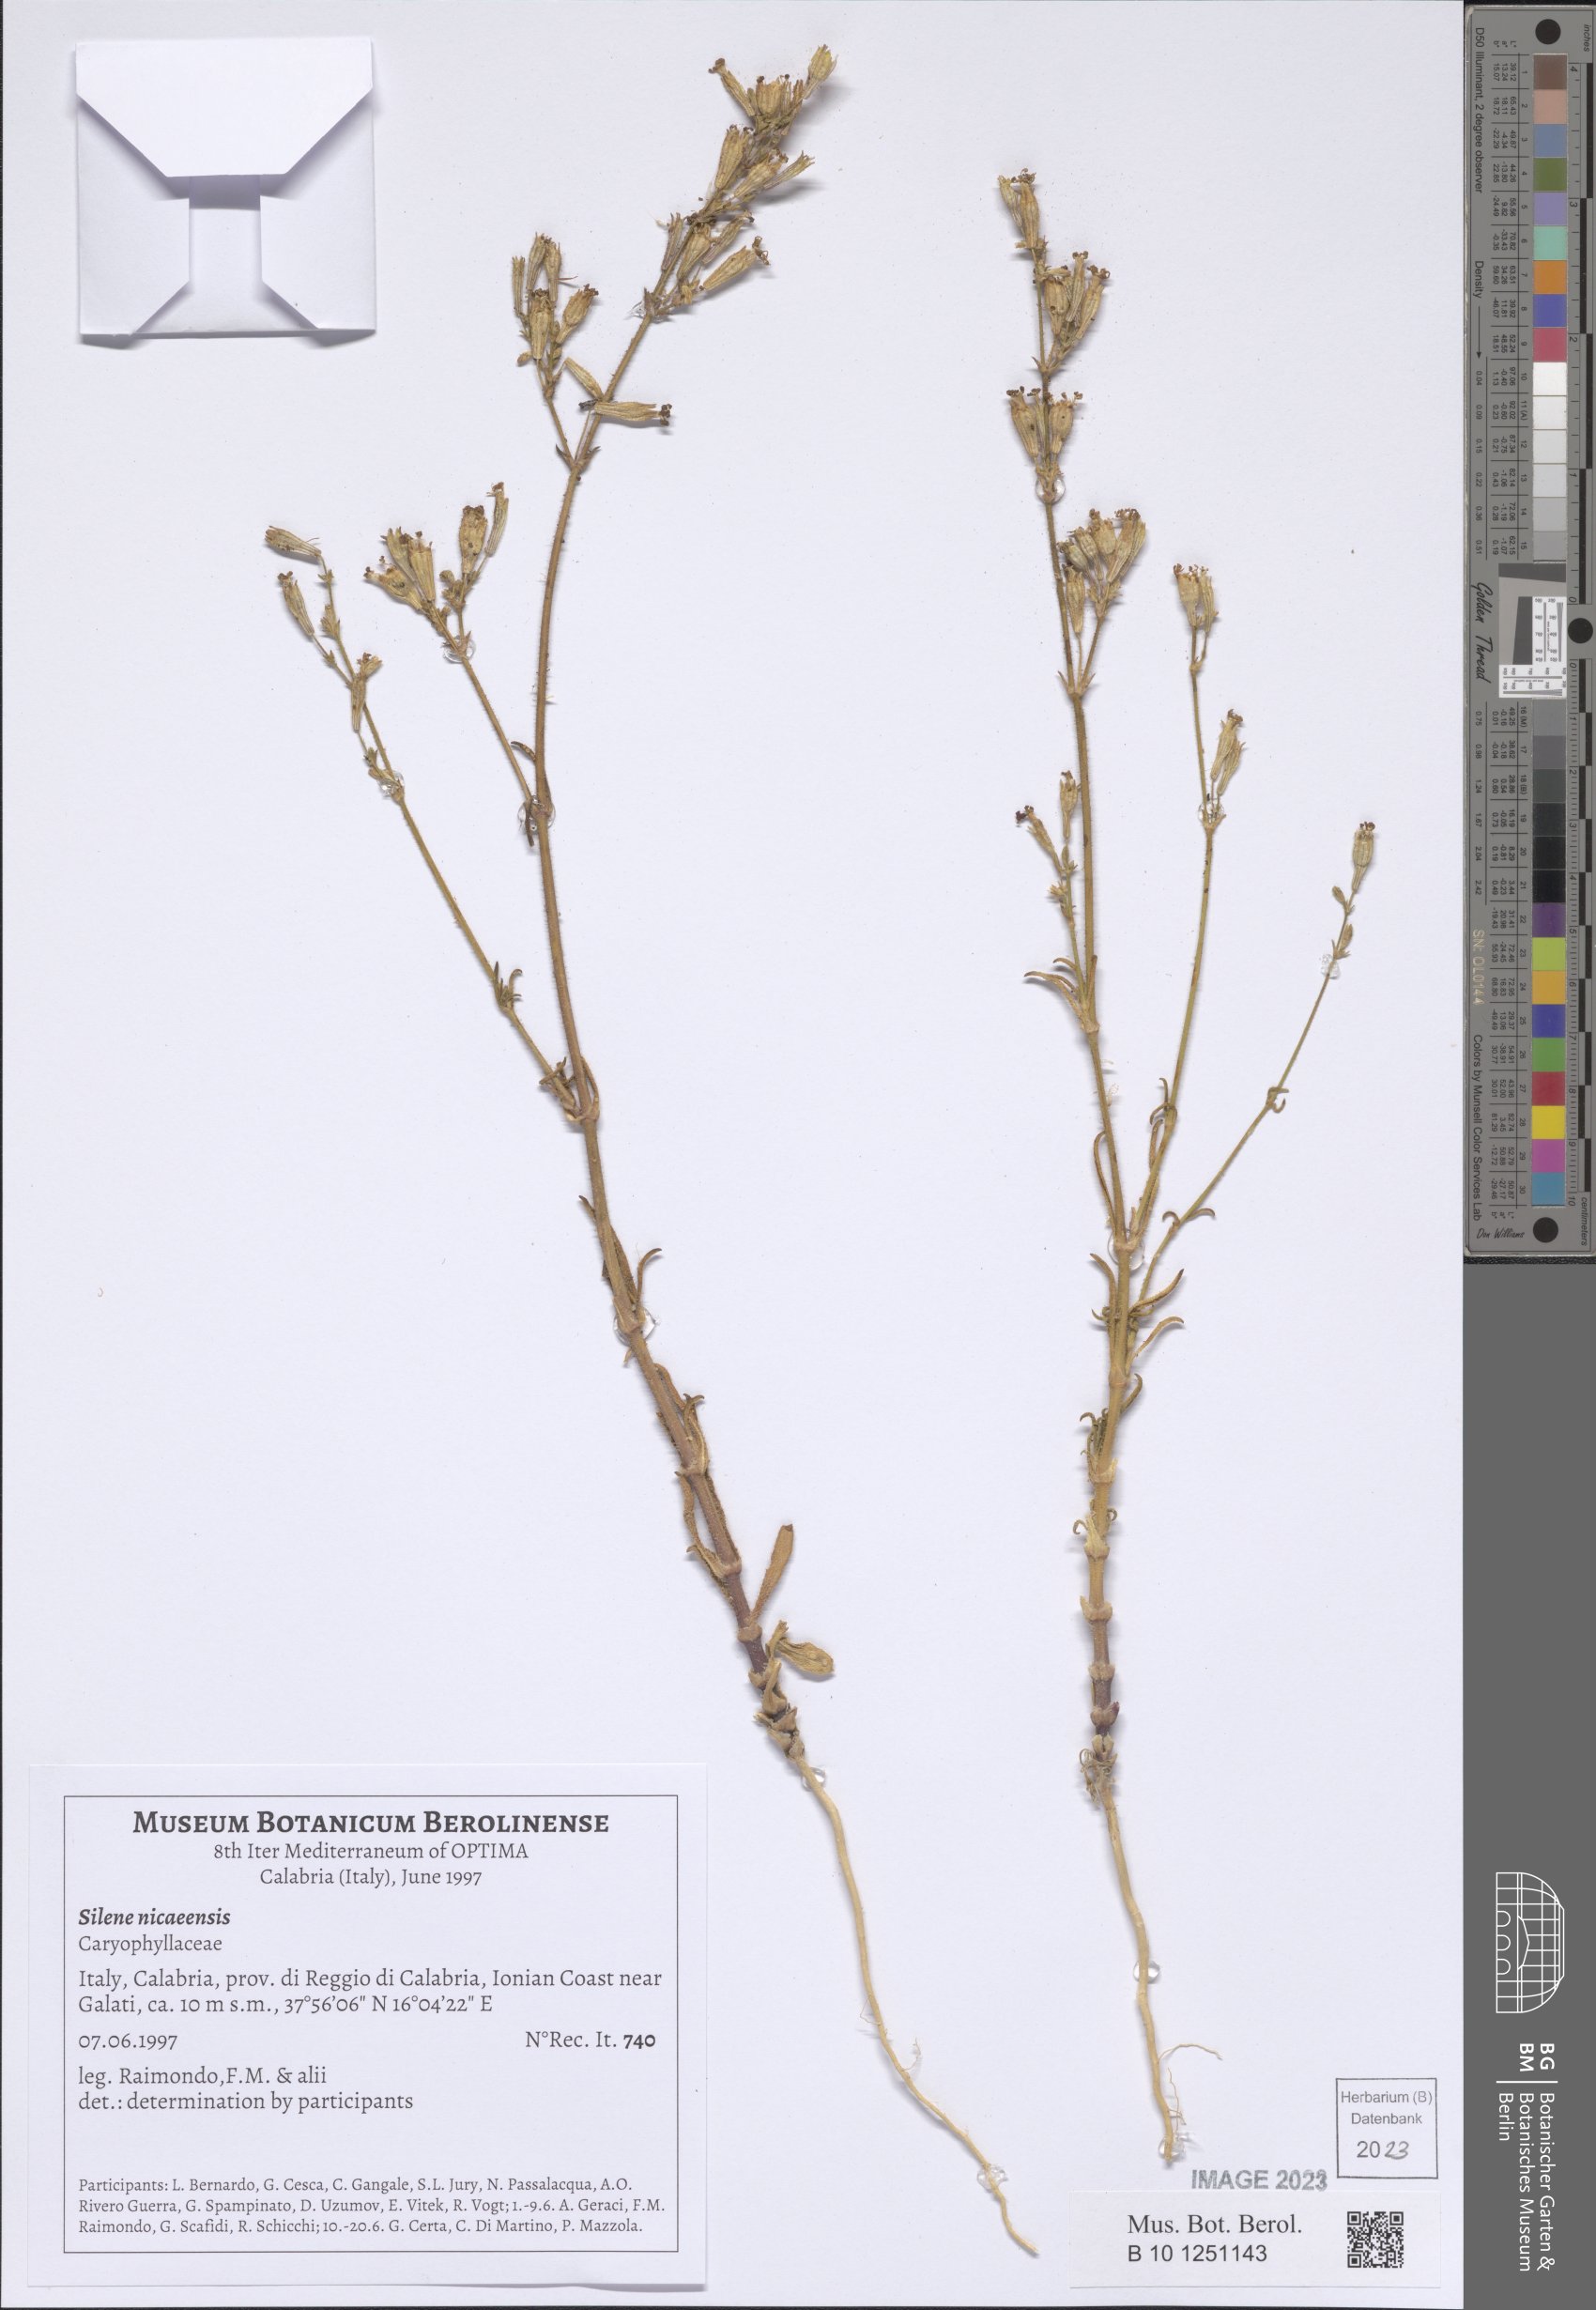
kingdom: Plantae
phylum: Tracheophyta
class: Magnoliopsida
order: Caryophyllales
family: Caryophyllaceae
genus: Silene
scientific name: Silene nicaeensis
